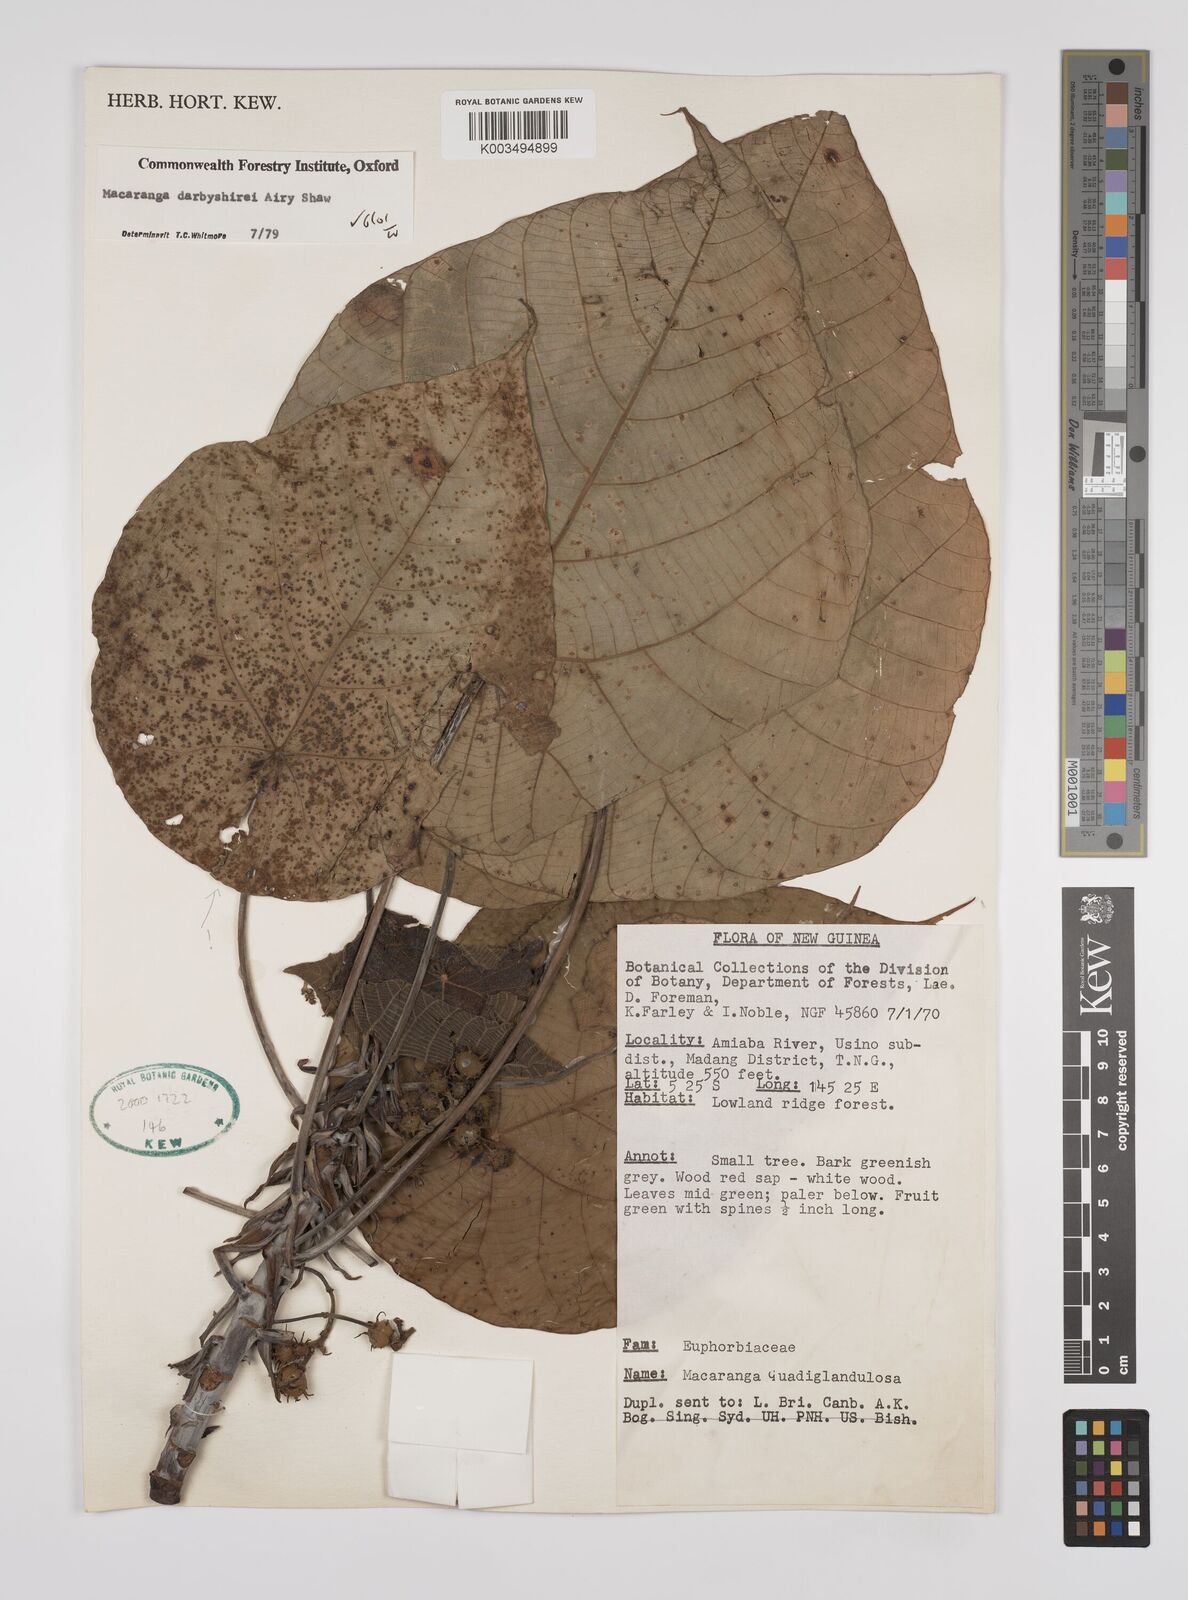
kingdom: Plantae
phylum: Tracheophyta
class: Magnoliopsida
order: Malpighiales
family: Euphorbiaceae
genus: Macaranga
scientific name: Macaranga darbyshirei
